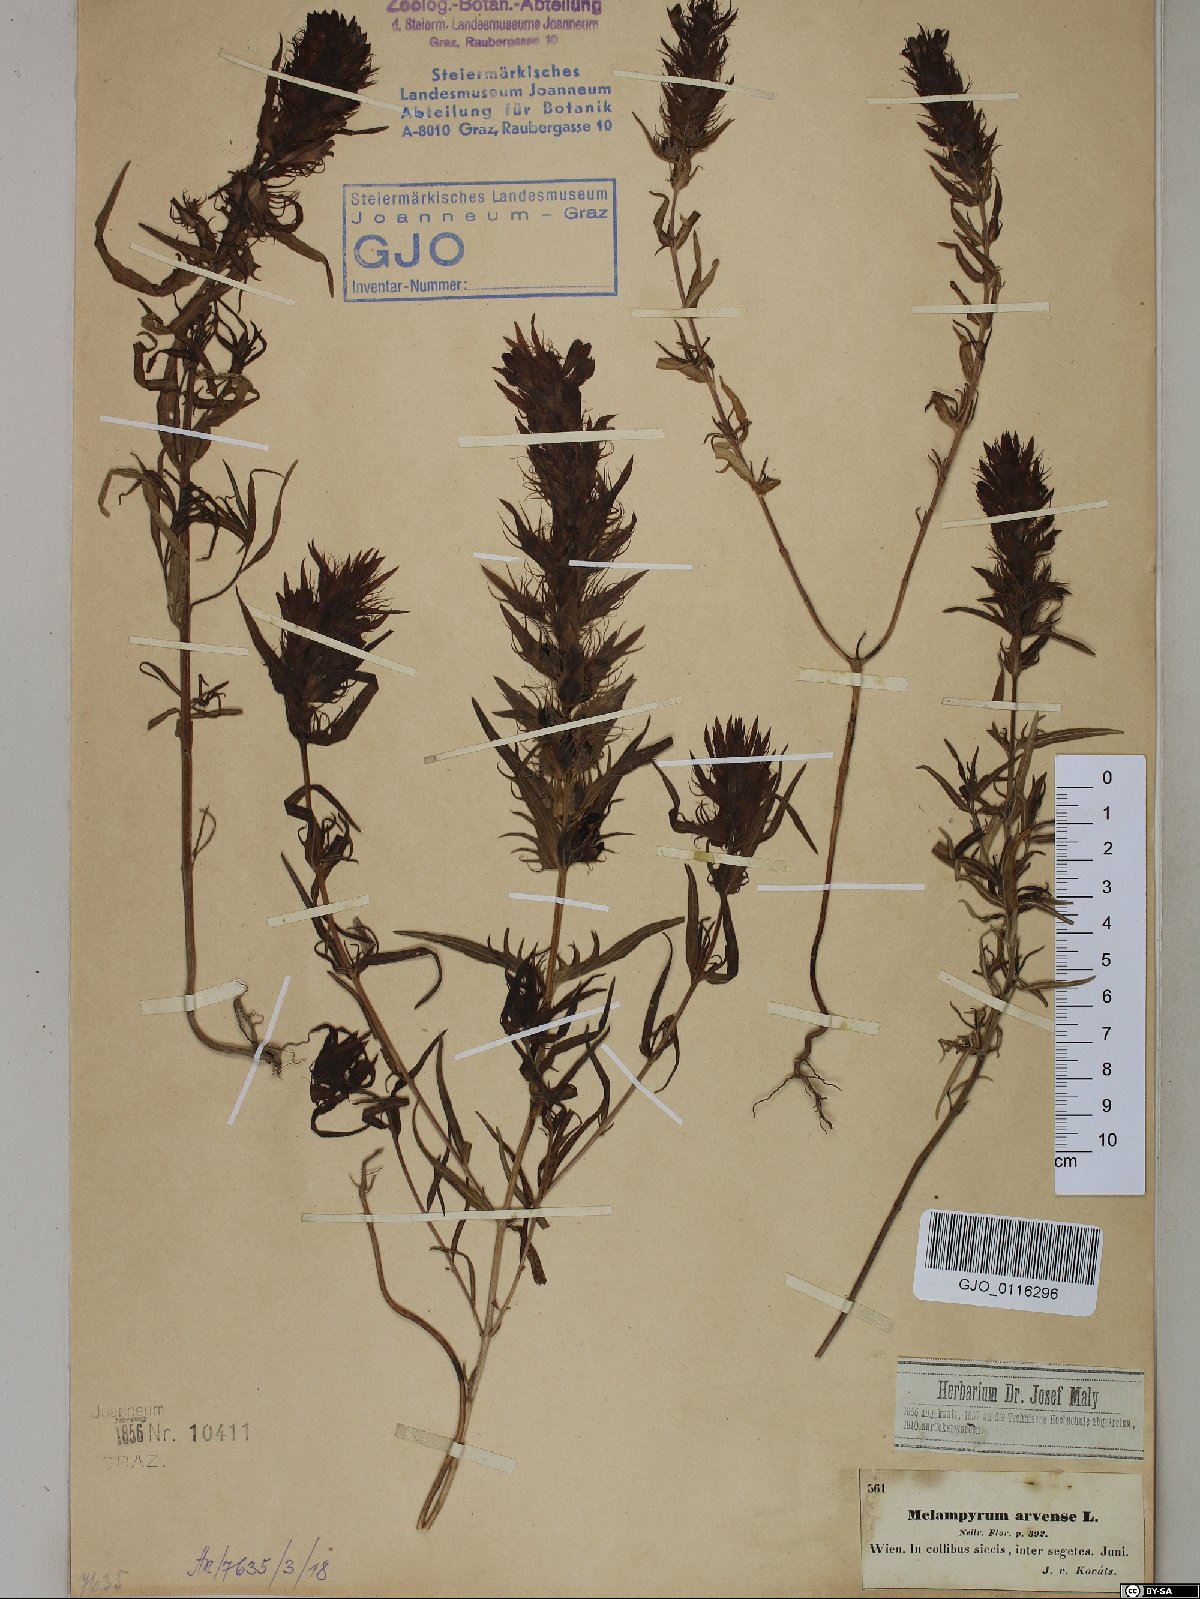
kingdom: Plantae
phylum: Tracheophyta
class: Magnoliopsida
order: Lamiales
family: Orobanchaceae
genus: Melampyrum
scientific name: Melampyrum arvense
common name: Field cow-wheat
